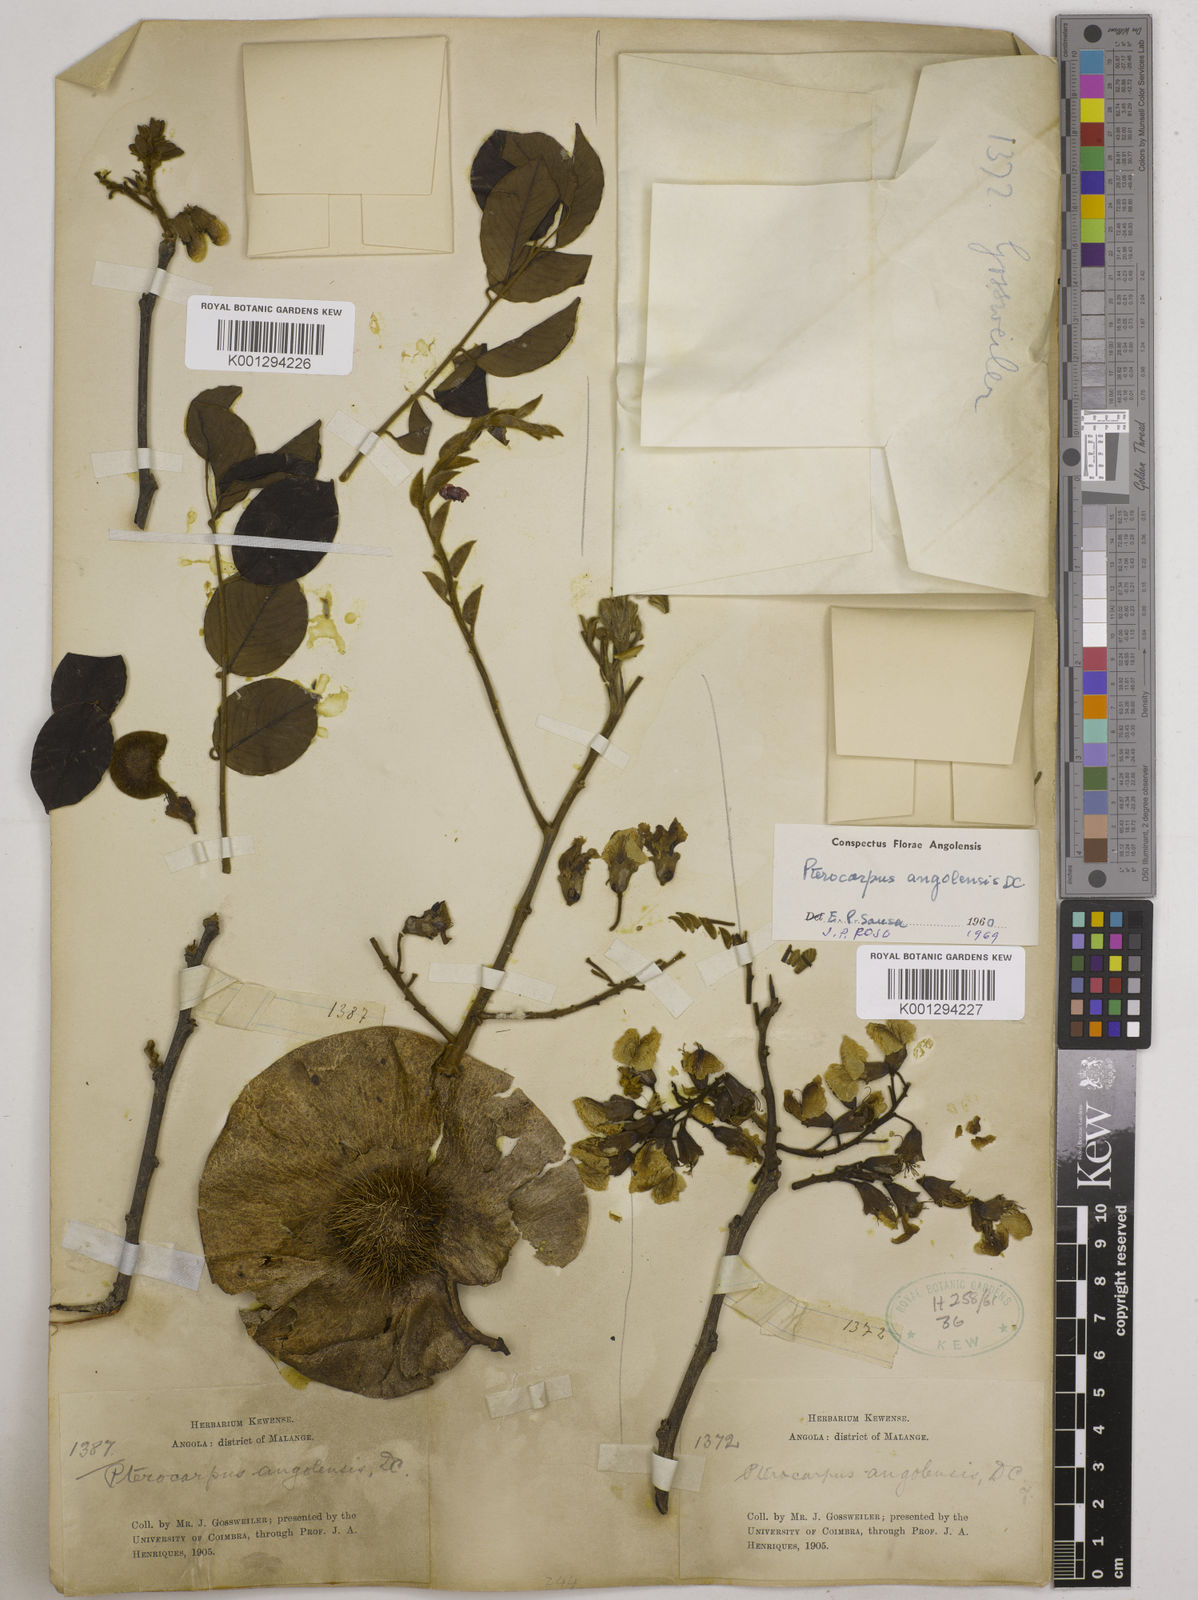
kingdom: Plantae
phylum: Tracheophyta
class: Magnoliopsida
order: Fabales
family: Fabaceae
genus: Pterocarpus
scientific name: Pterocarpus angolensis
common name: Bloodwood tree
